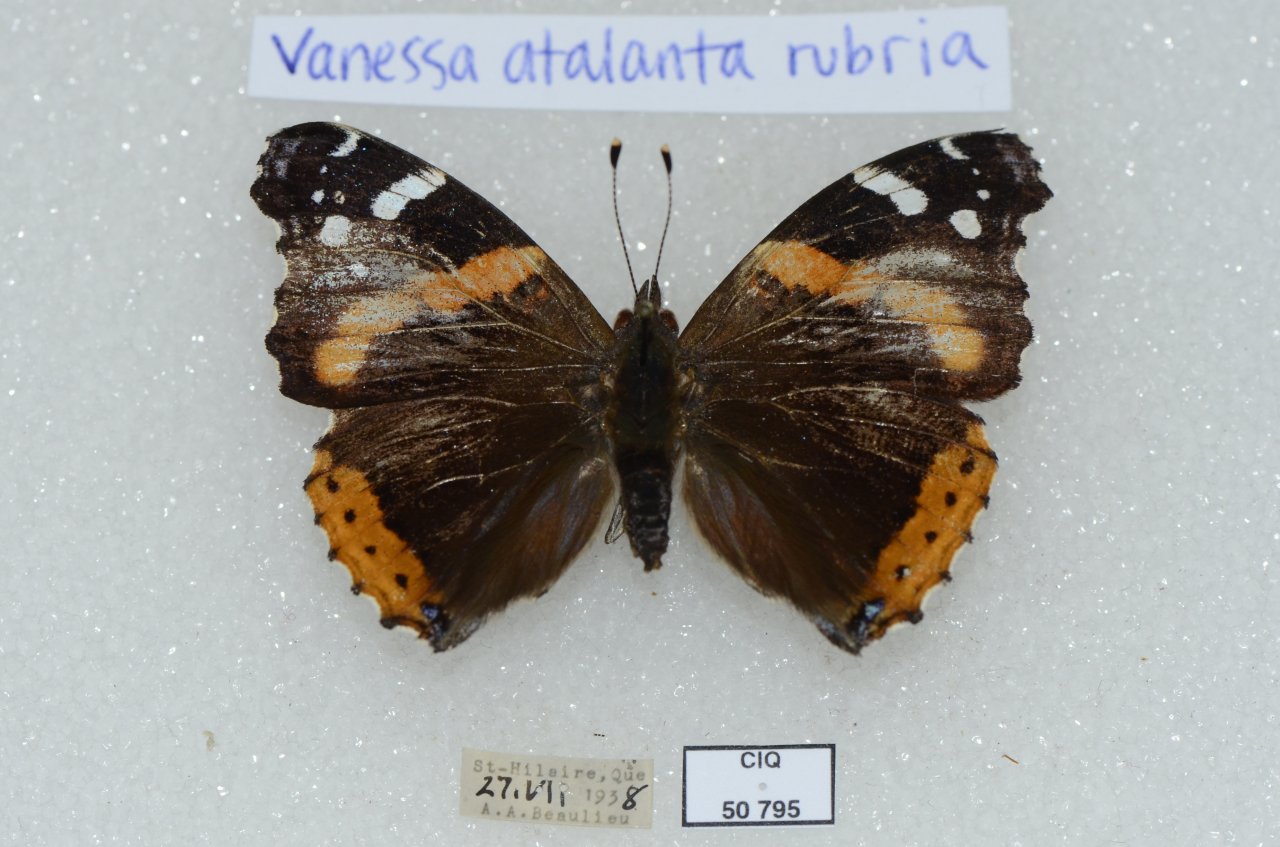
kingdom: Animalia
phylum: Arthropoda
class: Insecta
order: Lepidoptera
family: Nymphalidae
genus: Vanessa
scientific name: Vanessa atalanta
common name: Red Admiral
